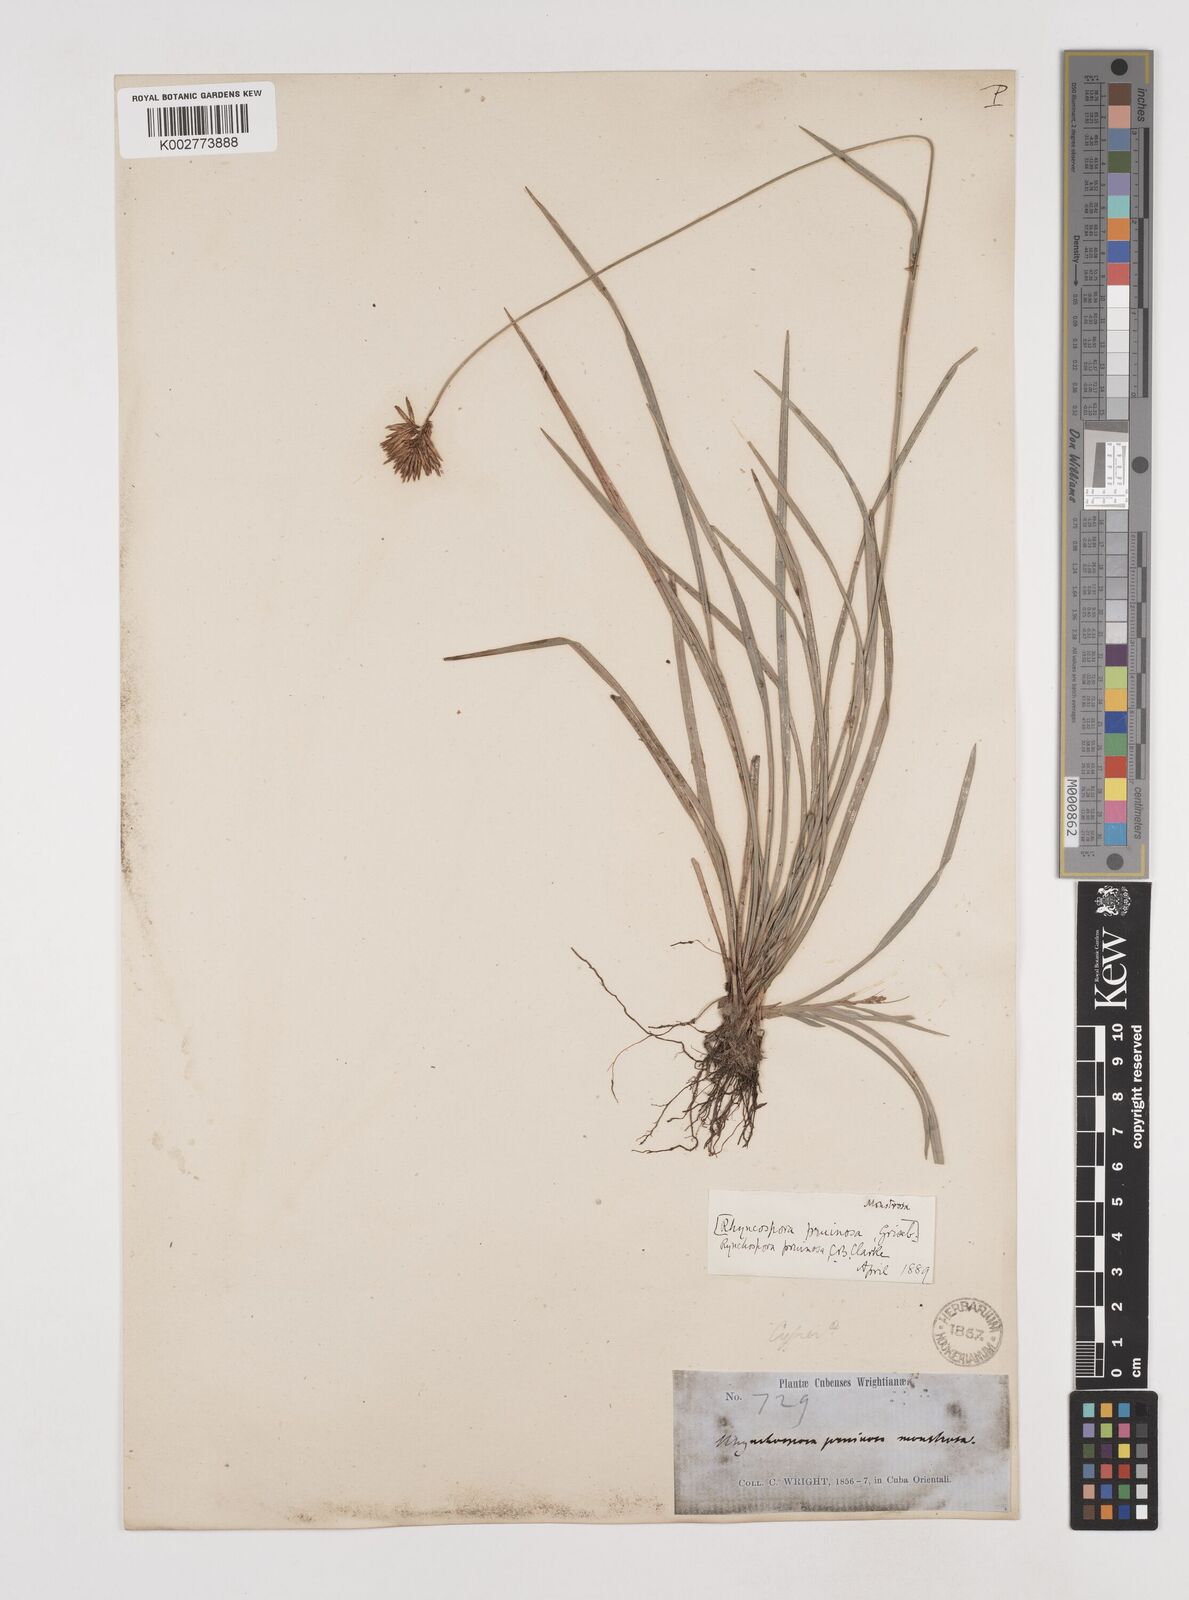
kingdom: Plantae
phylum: Tracheophyta
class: Liliopsida
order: Poales
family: Cyperaceae
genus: Rhynchospora
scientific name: Rhynchospora pruinosa
